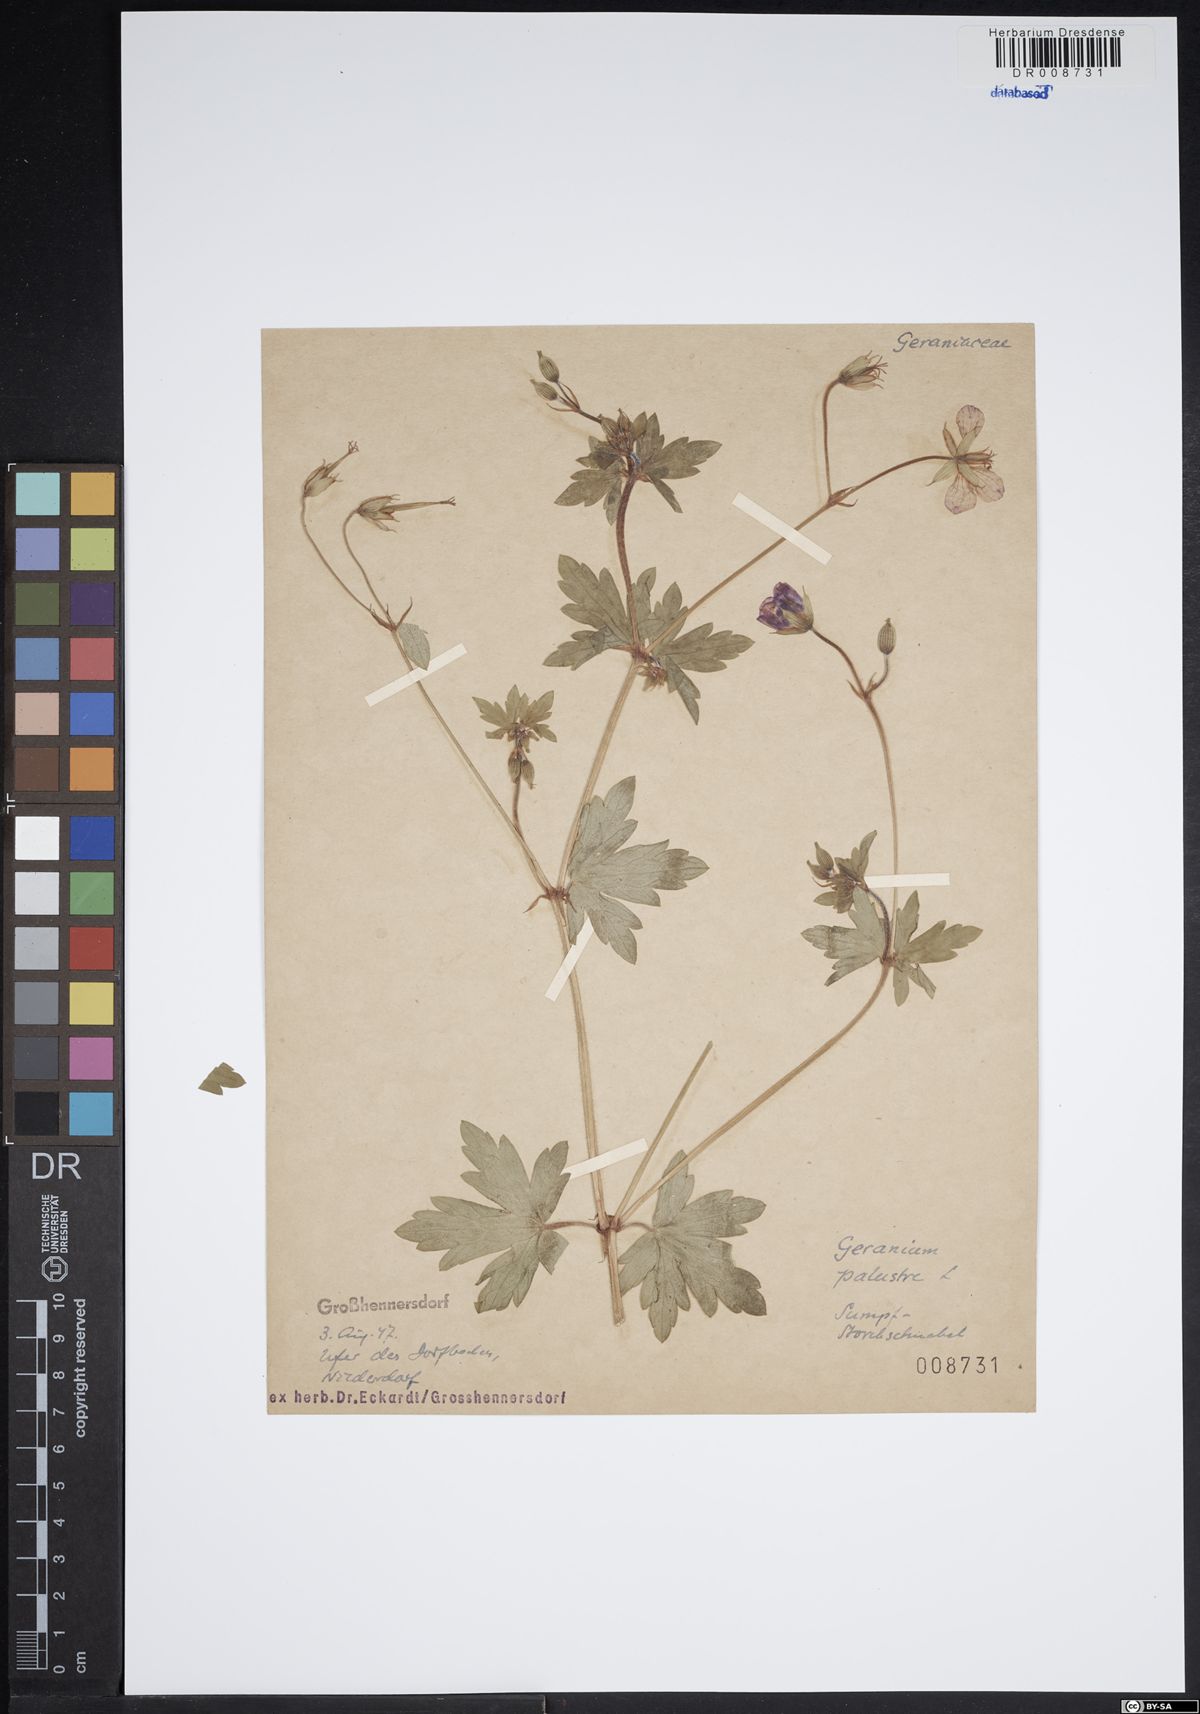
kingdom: Plantae
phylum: Tracheophyta
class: Magnoliopsida
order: Geraniales
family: Geraniaceae
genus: Geranium
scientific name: Geranium palustre
